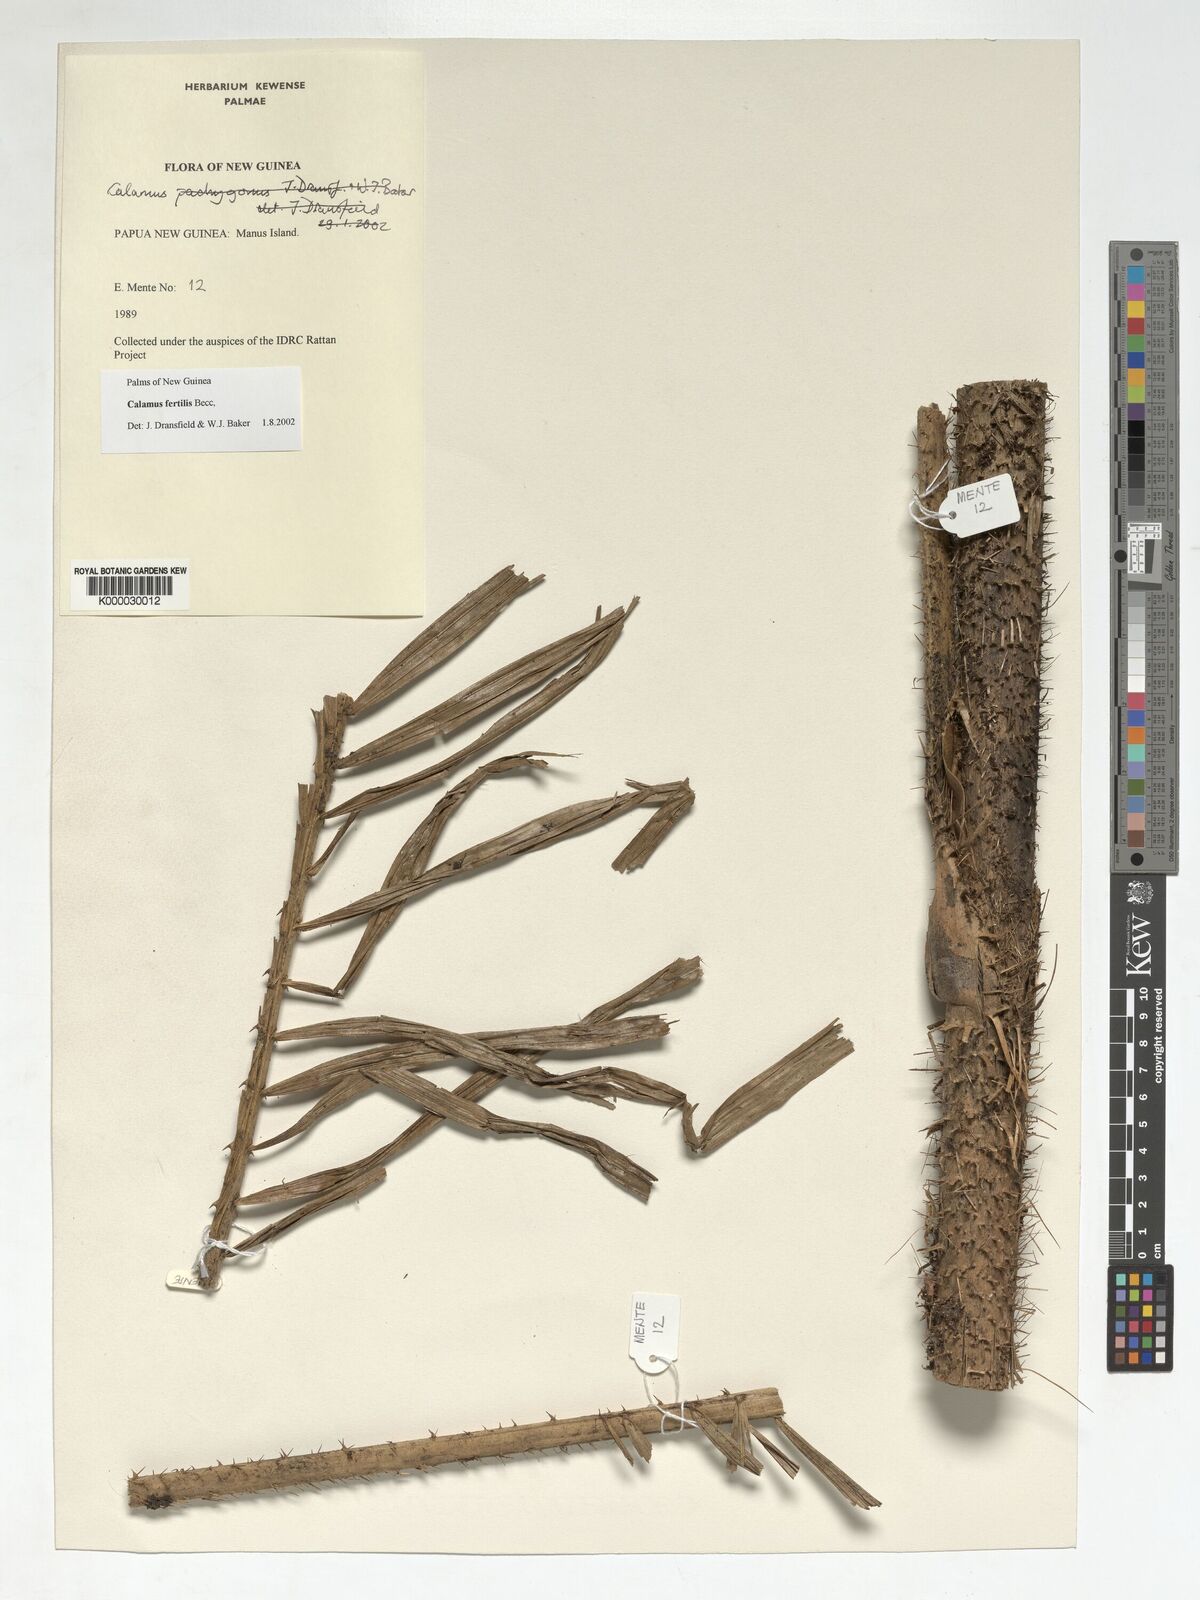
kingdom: Plantae
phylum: Tracheophyta
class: Liliopsida
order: Arecales
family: Arecaceae
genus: Calamus
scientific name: Calamus fertilis
